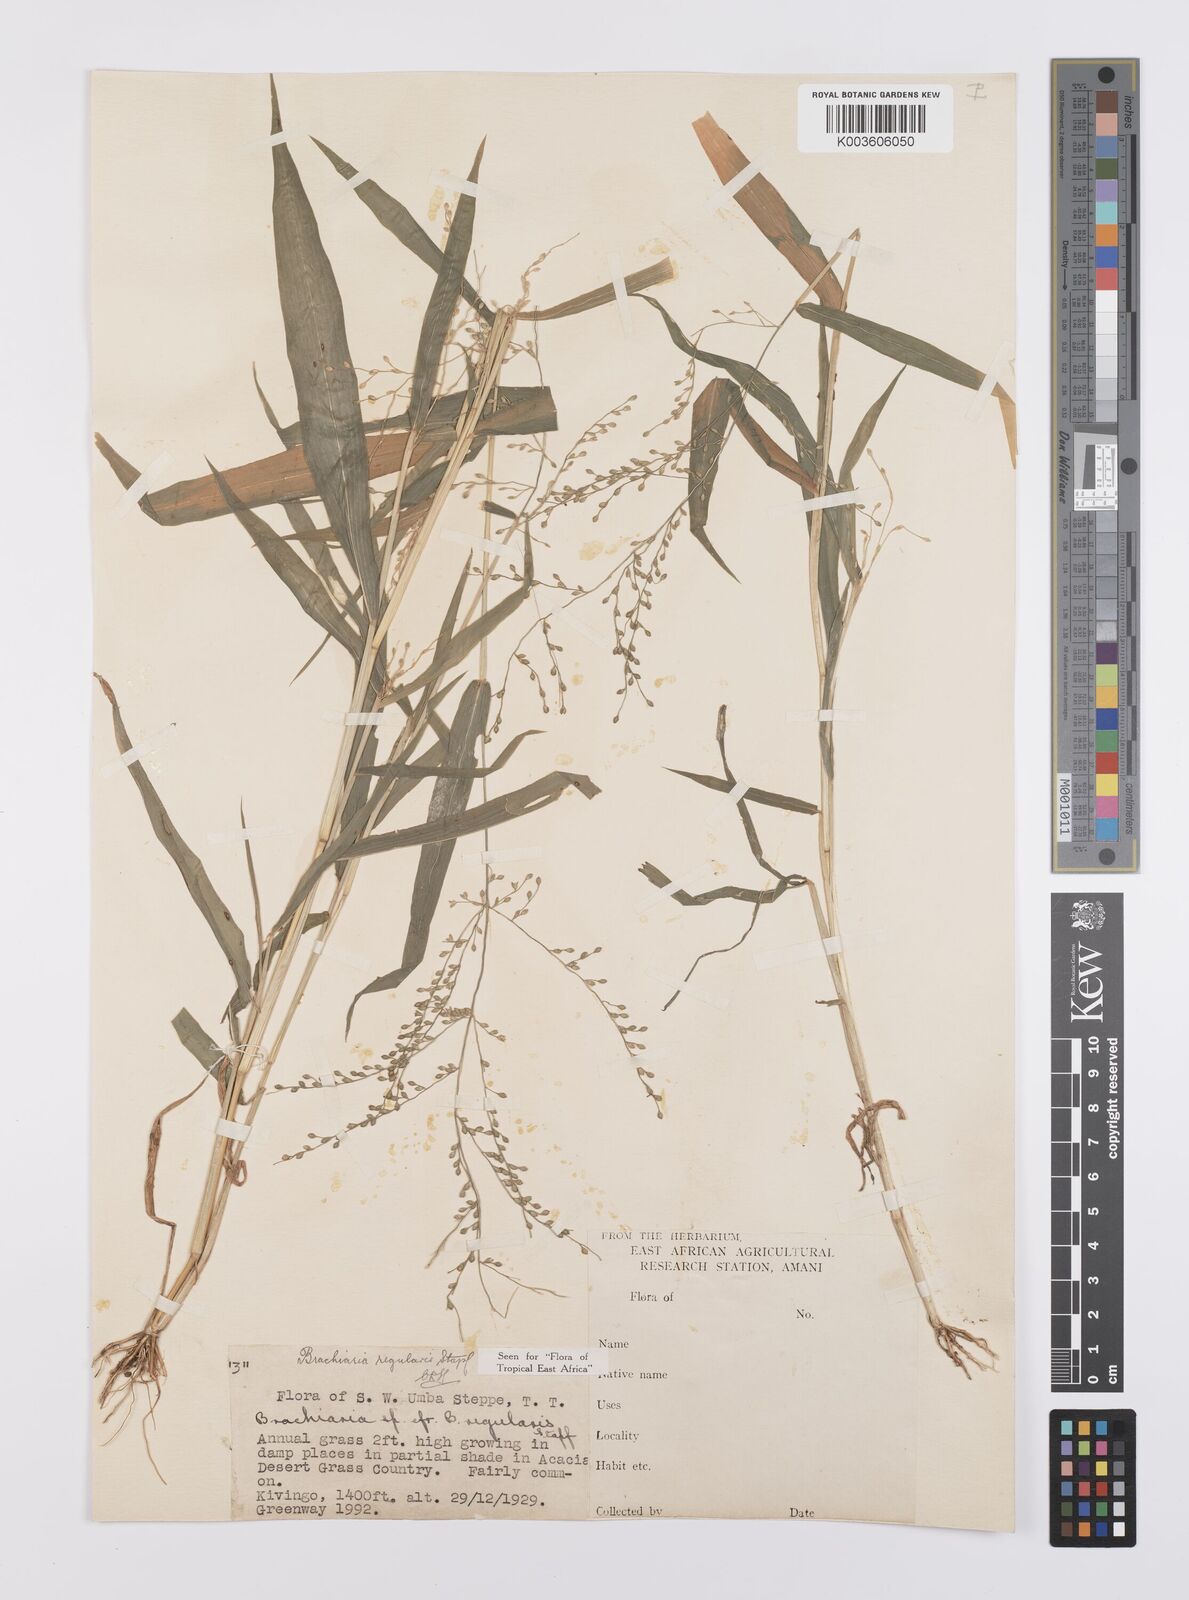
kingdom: Plantae
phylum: Tracheophyta
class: Liliopsida
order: Poales
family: Poaceae
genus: Urochloa
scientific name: Urochloa deflexa
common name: Guinea millet
